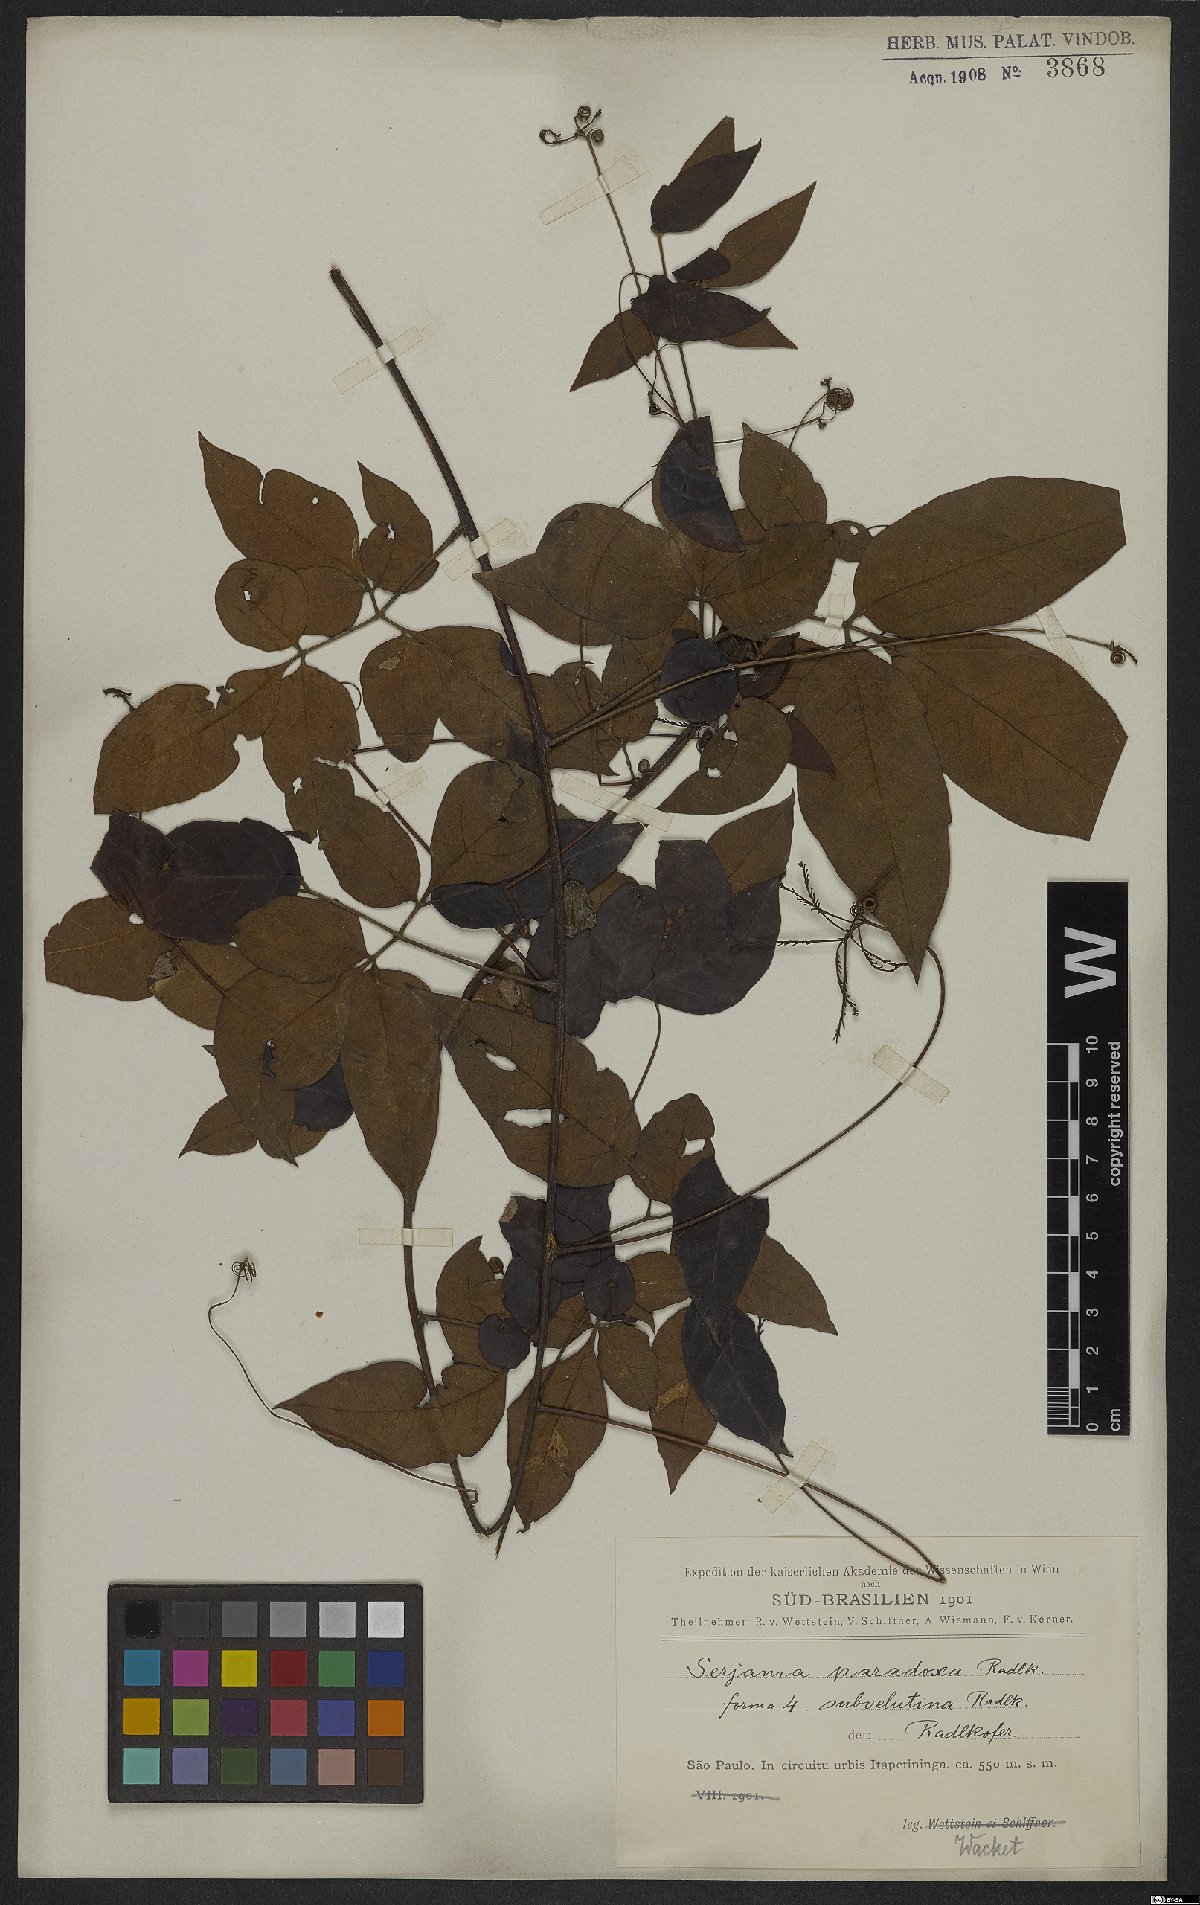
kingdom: Plantae
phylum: Tracheophyta
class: Magnoliopsida
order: Sapindales
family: Sapindaceae
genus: Serjania
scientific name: Serjania paradoxa
